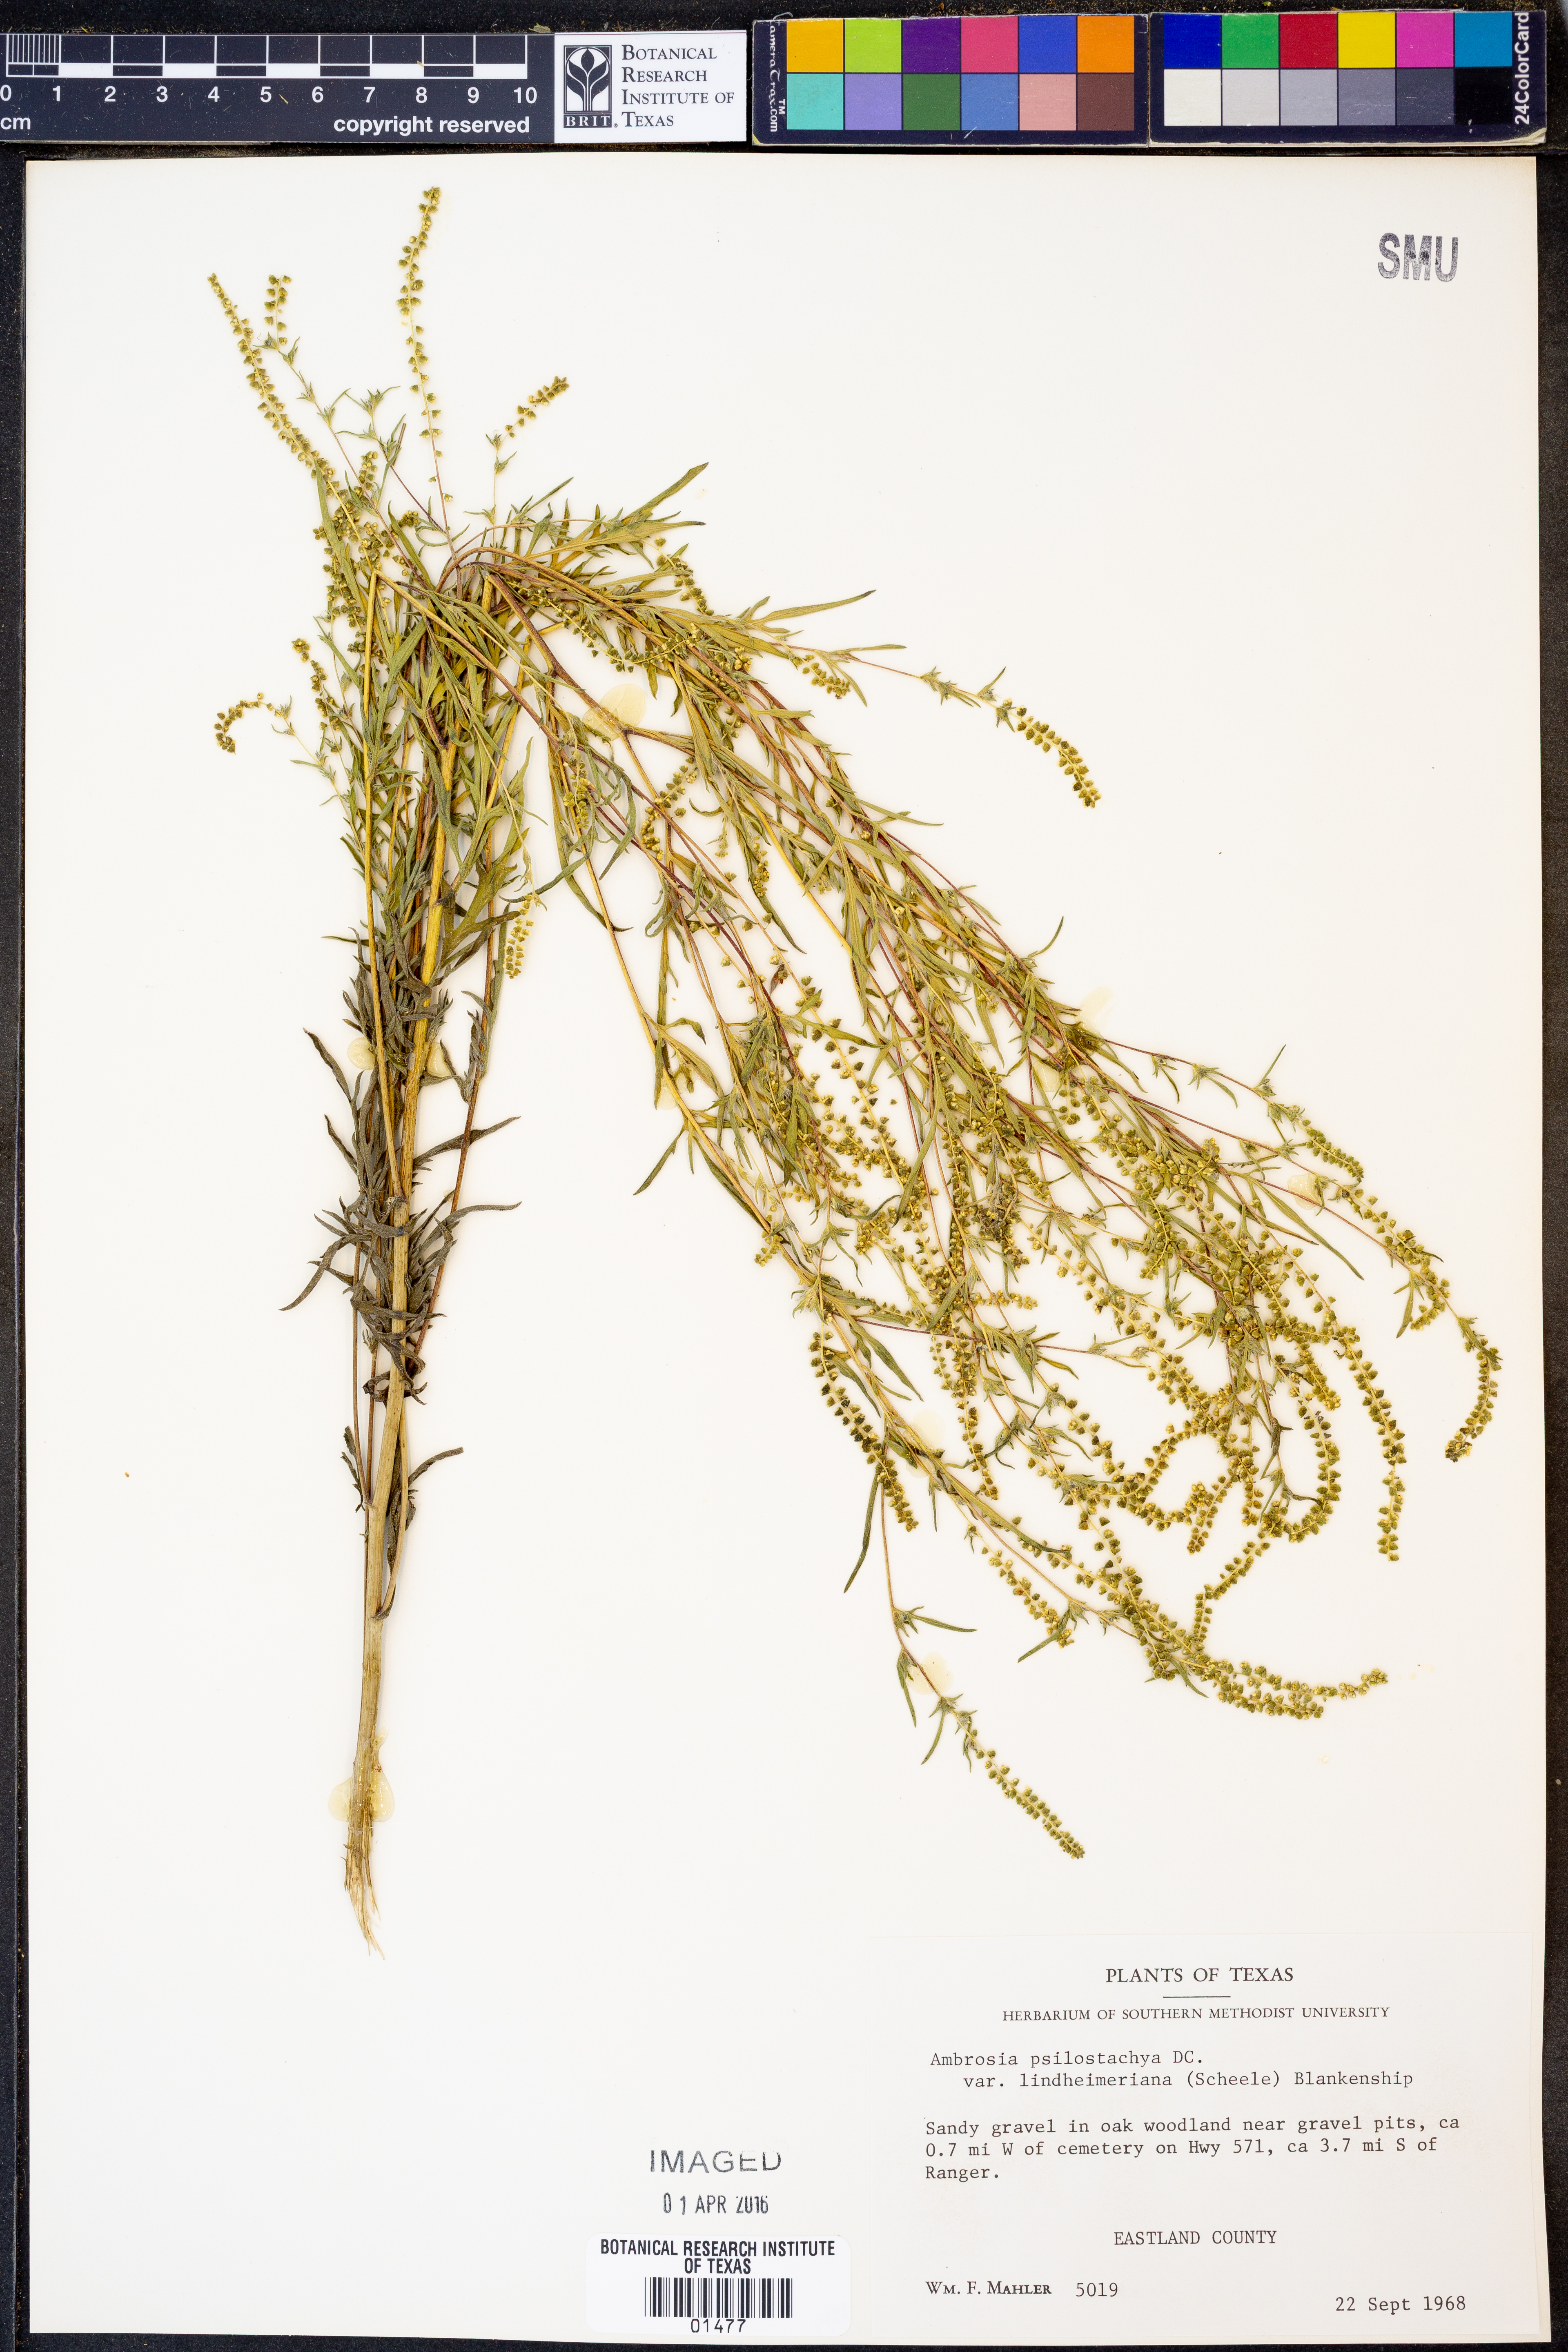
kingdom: Plantae
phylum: Tracheophyta
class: Magnoliopsida
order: Asterales
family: Asteraceae
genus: Ambrosia
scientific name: Ambrosia psilostachya
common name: Perennial ragweed
